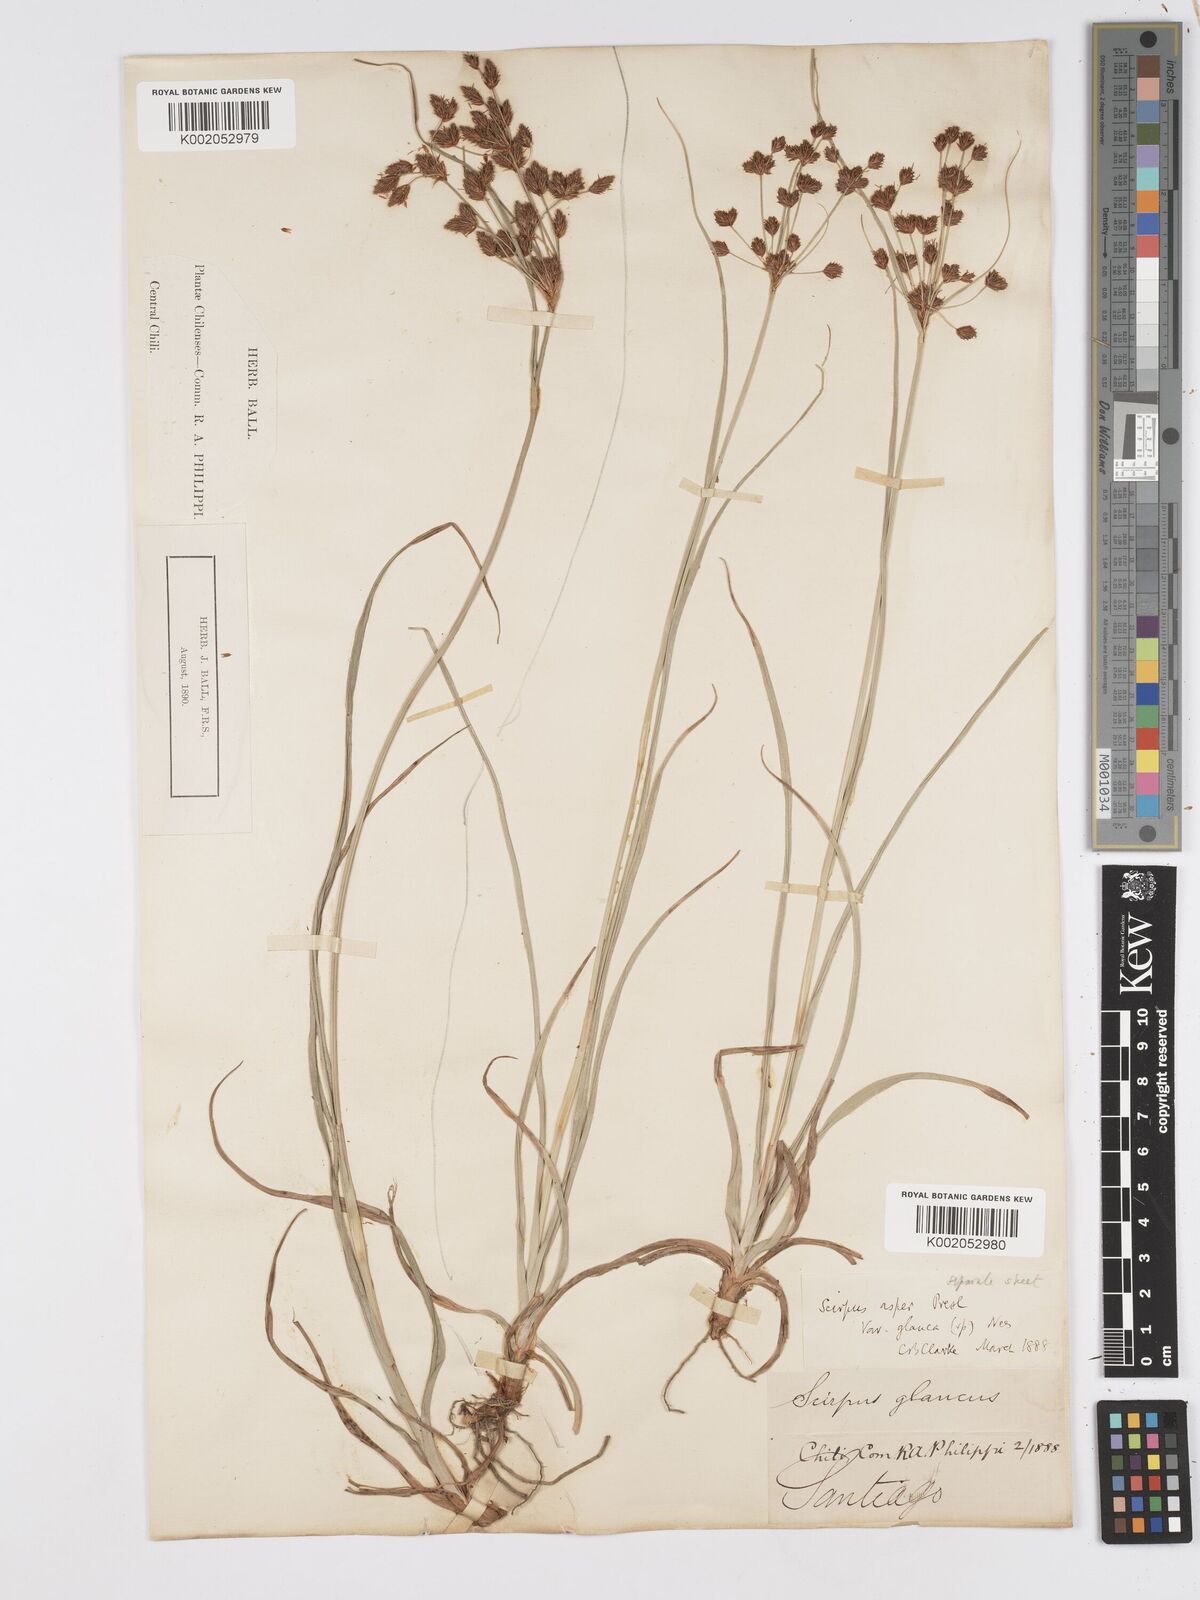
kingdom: Plantae
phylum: Tracheophyta
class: Liliopsida
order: Poales
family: Cyperaceae
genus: Rhodoscirpus
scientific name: Rhodoscirpus asper
